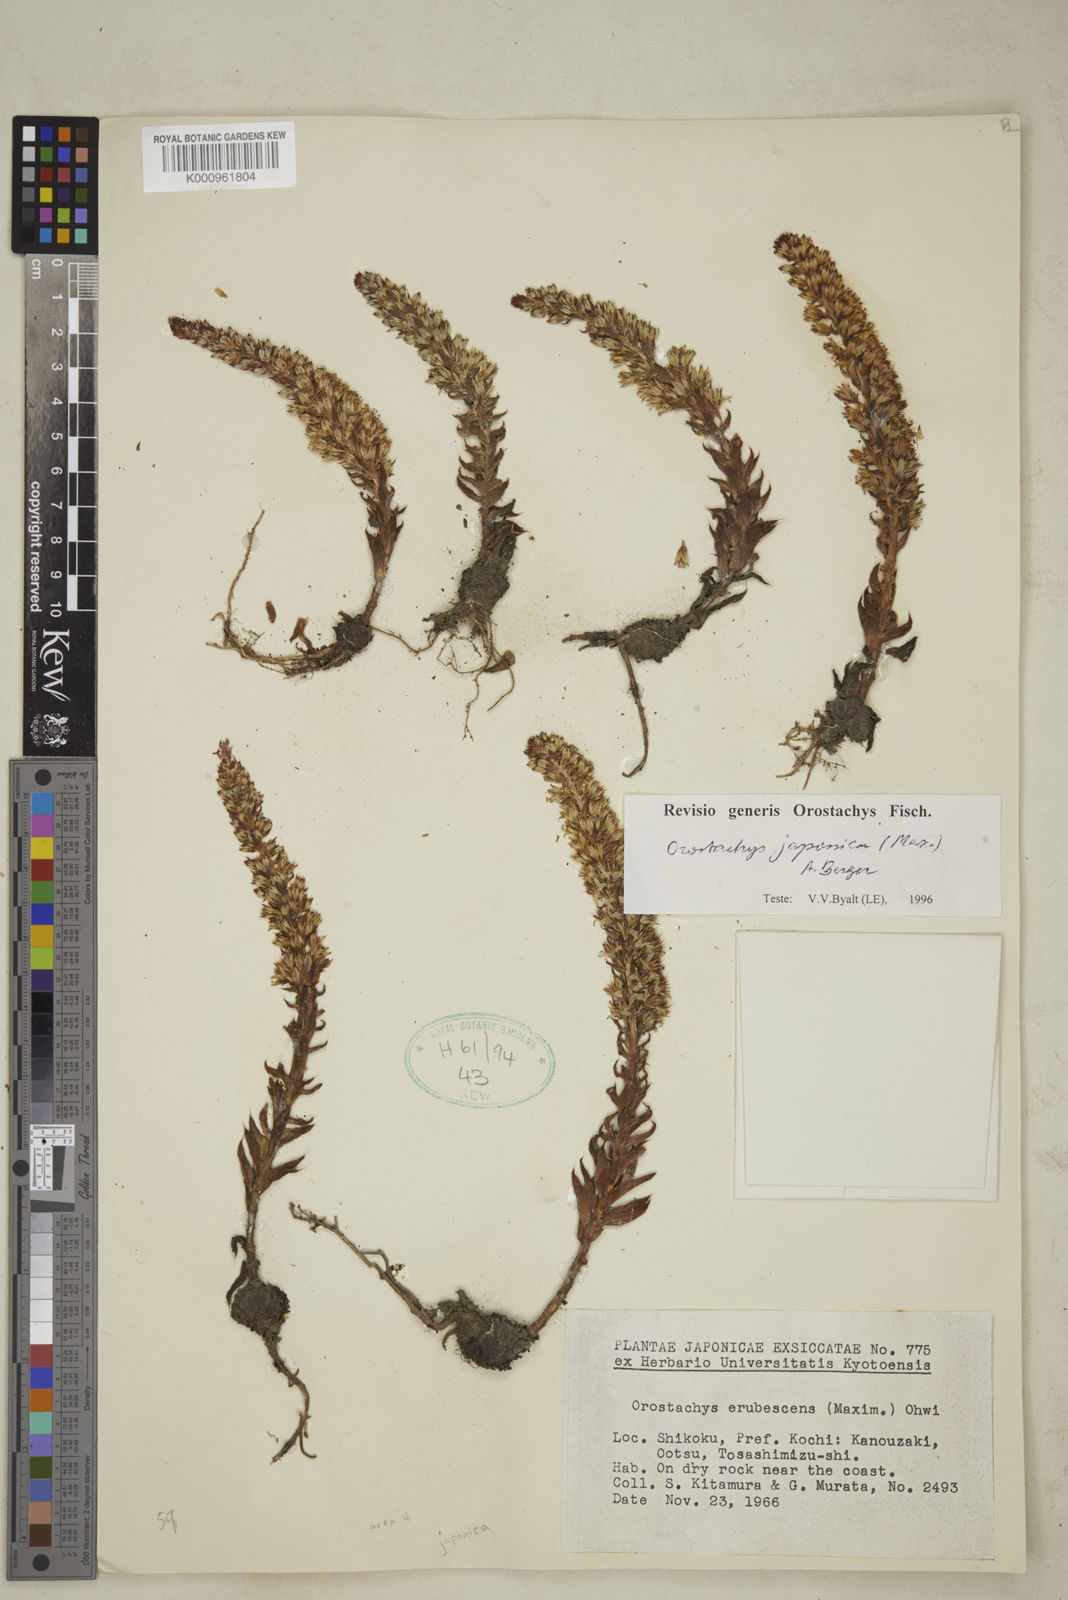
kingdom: Plantae
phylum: Tracheophyta
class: Magnoliopsida
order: Saxifragales
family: Crassulaceae
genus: Orostachys
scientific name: Orostachys japonica
